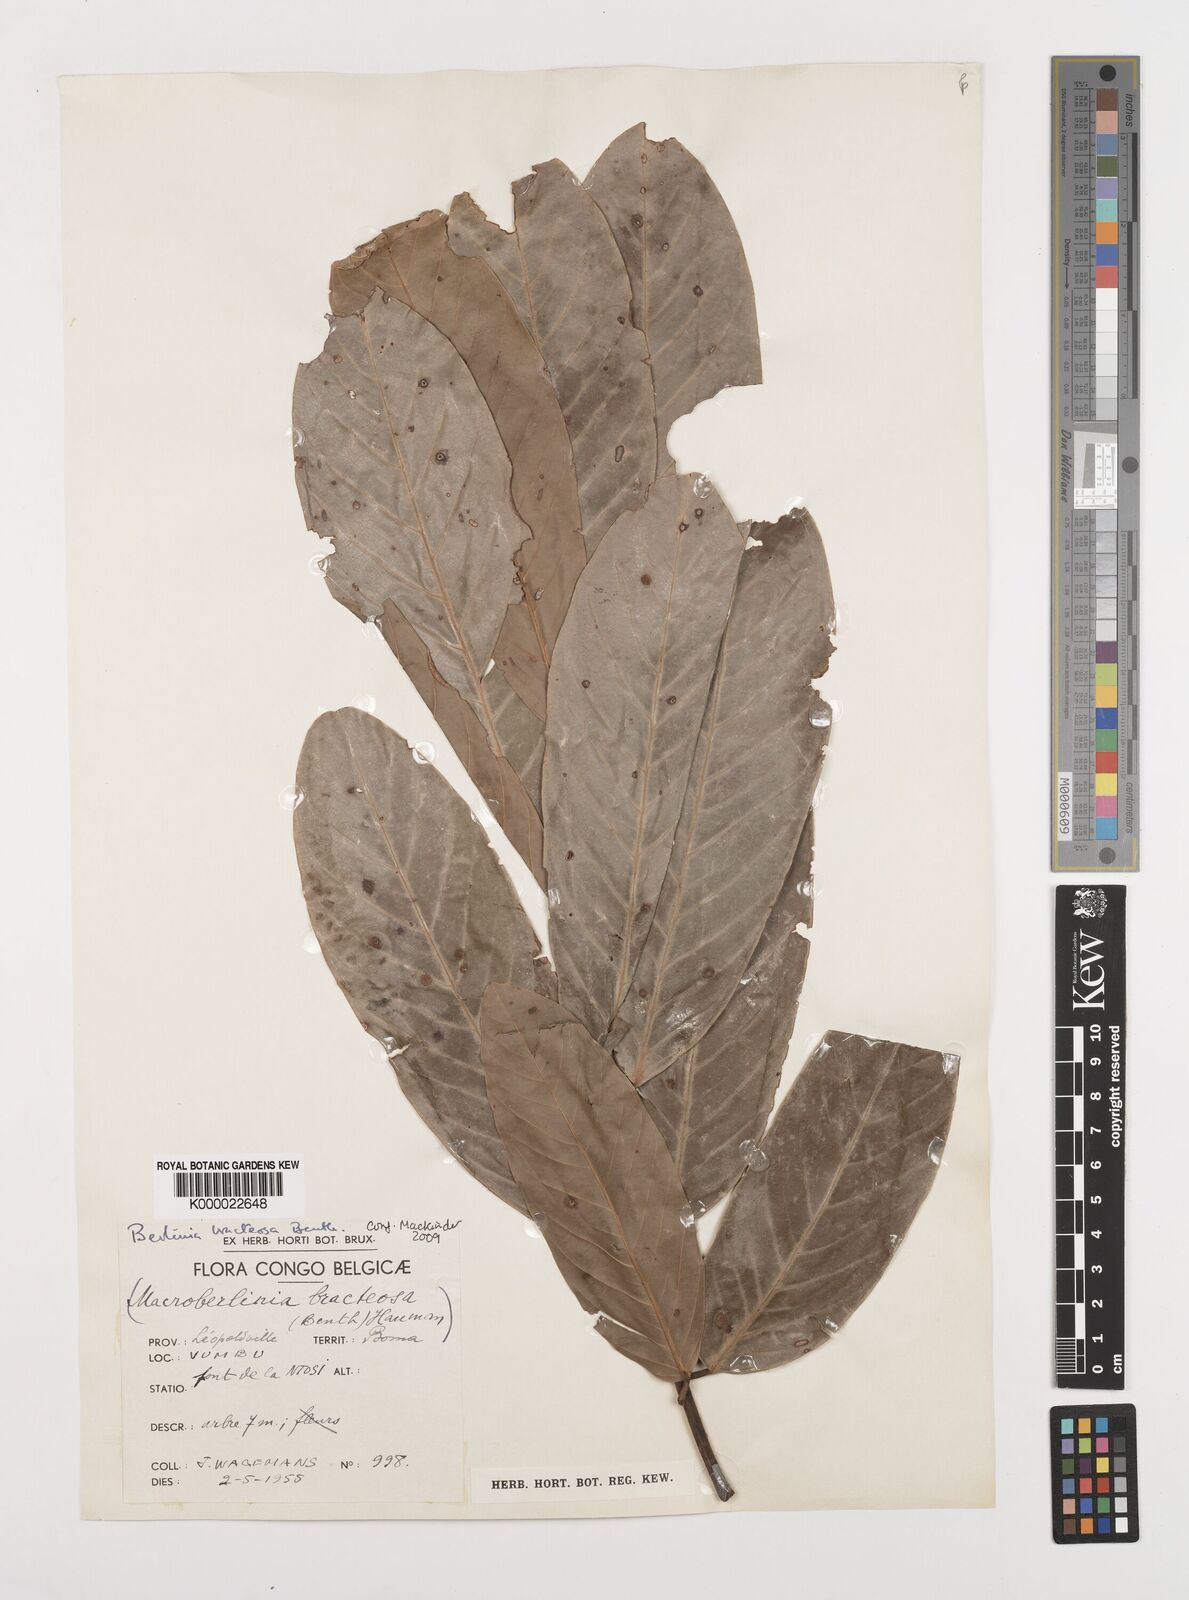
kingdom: Plantae
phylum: Tracheophyta
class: Magnoliopsida
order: Fabales
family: Fabaceae
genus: Berlinia
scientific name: Berlinia bracteosa
